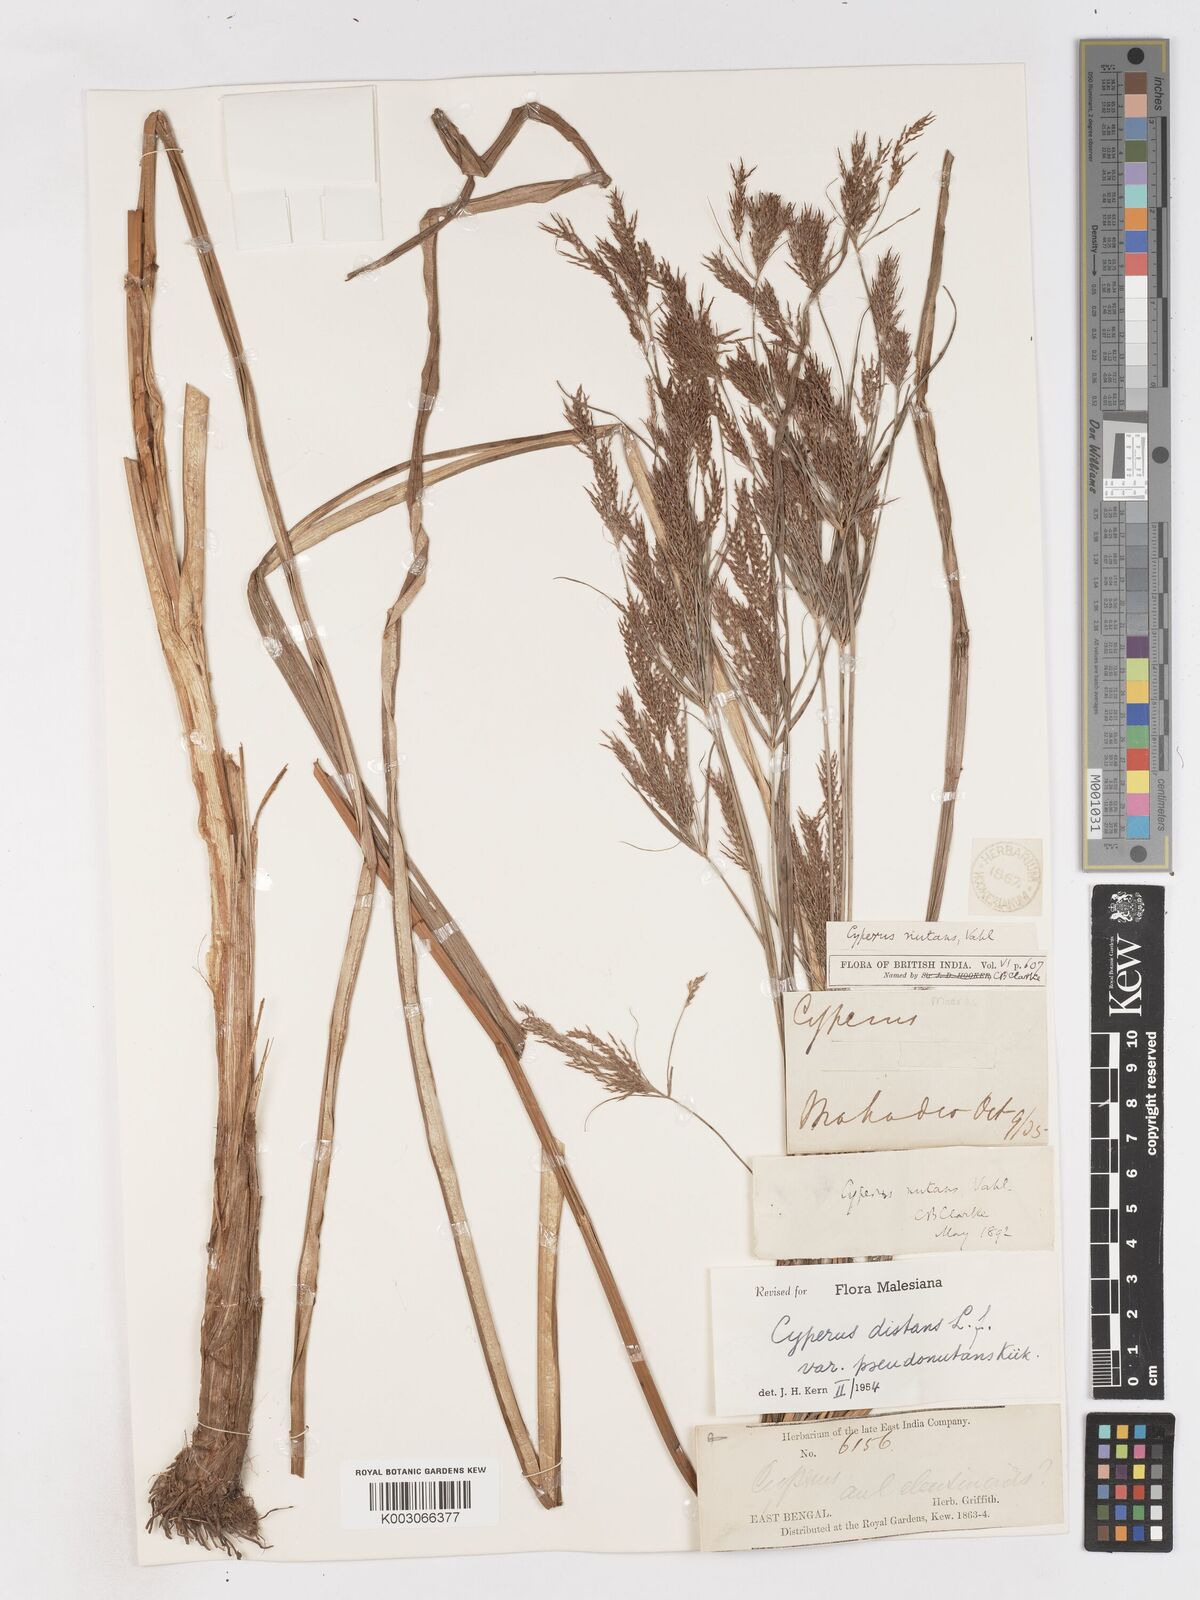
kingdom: Plantae
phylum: Tracheophyta
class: Liliopsida
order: Poales
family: Cyperaceae
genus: Cyperus
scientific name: Cyperus distans
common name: Slender cyperus
